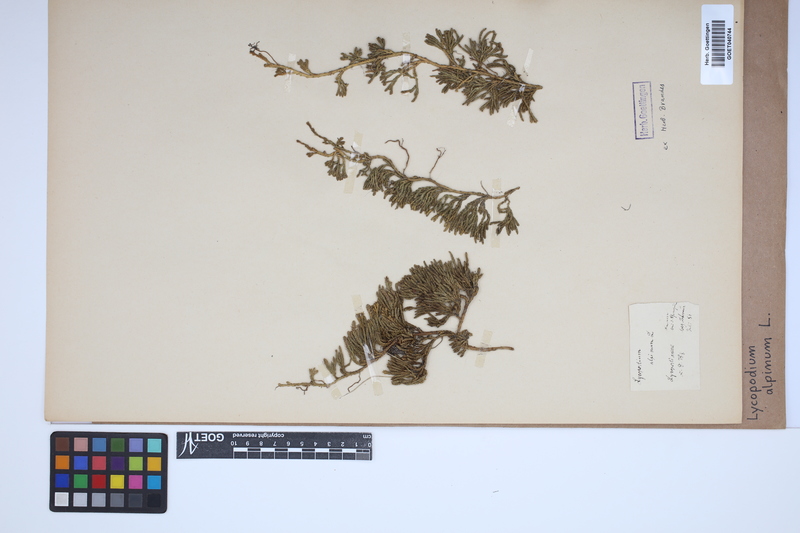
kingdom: Plantae
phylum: Tracheophyta
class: Lycopodiopsida
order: Lycopodiales
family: Lycopodiaceae
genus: Diphasiastrum
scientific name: Diphasiastrum alpinum
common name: Alpine clubmoss
